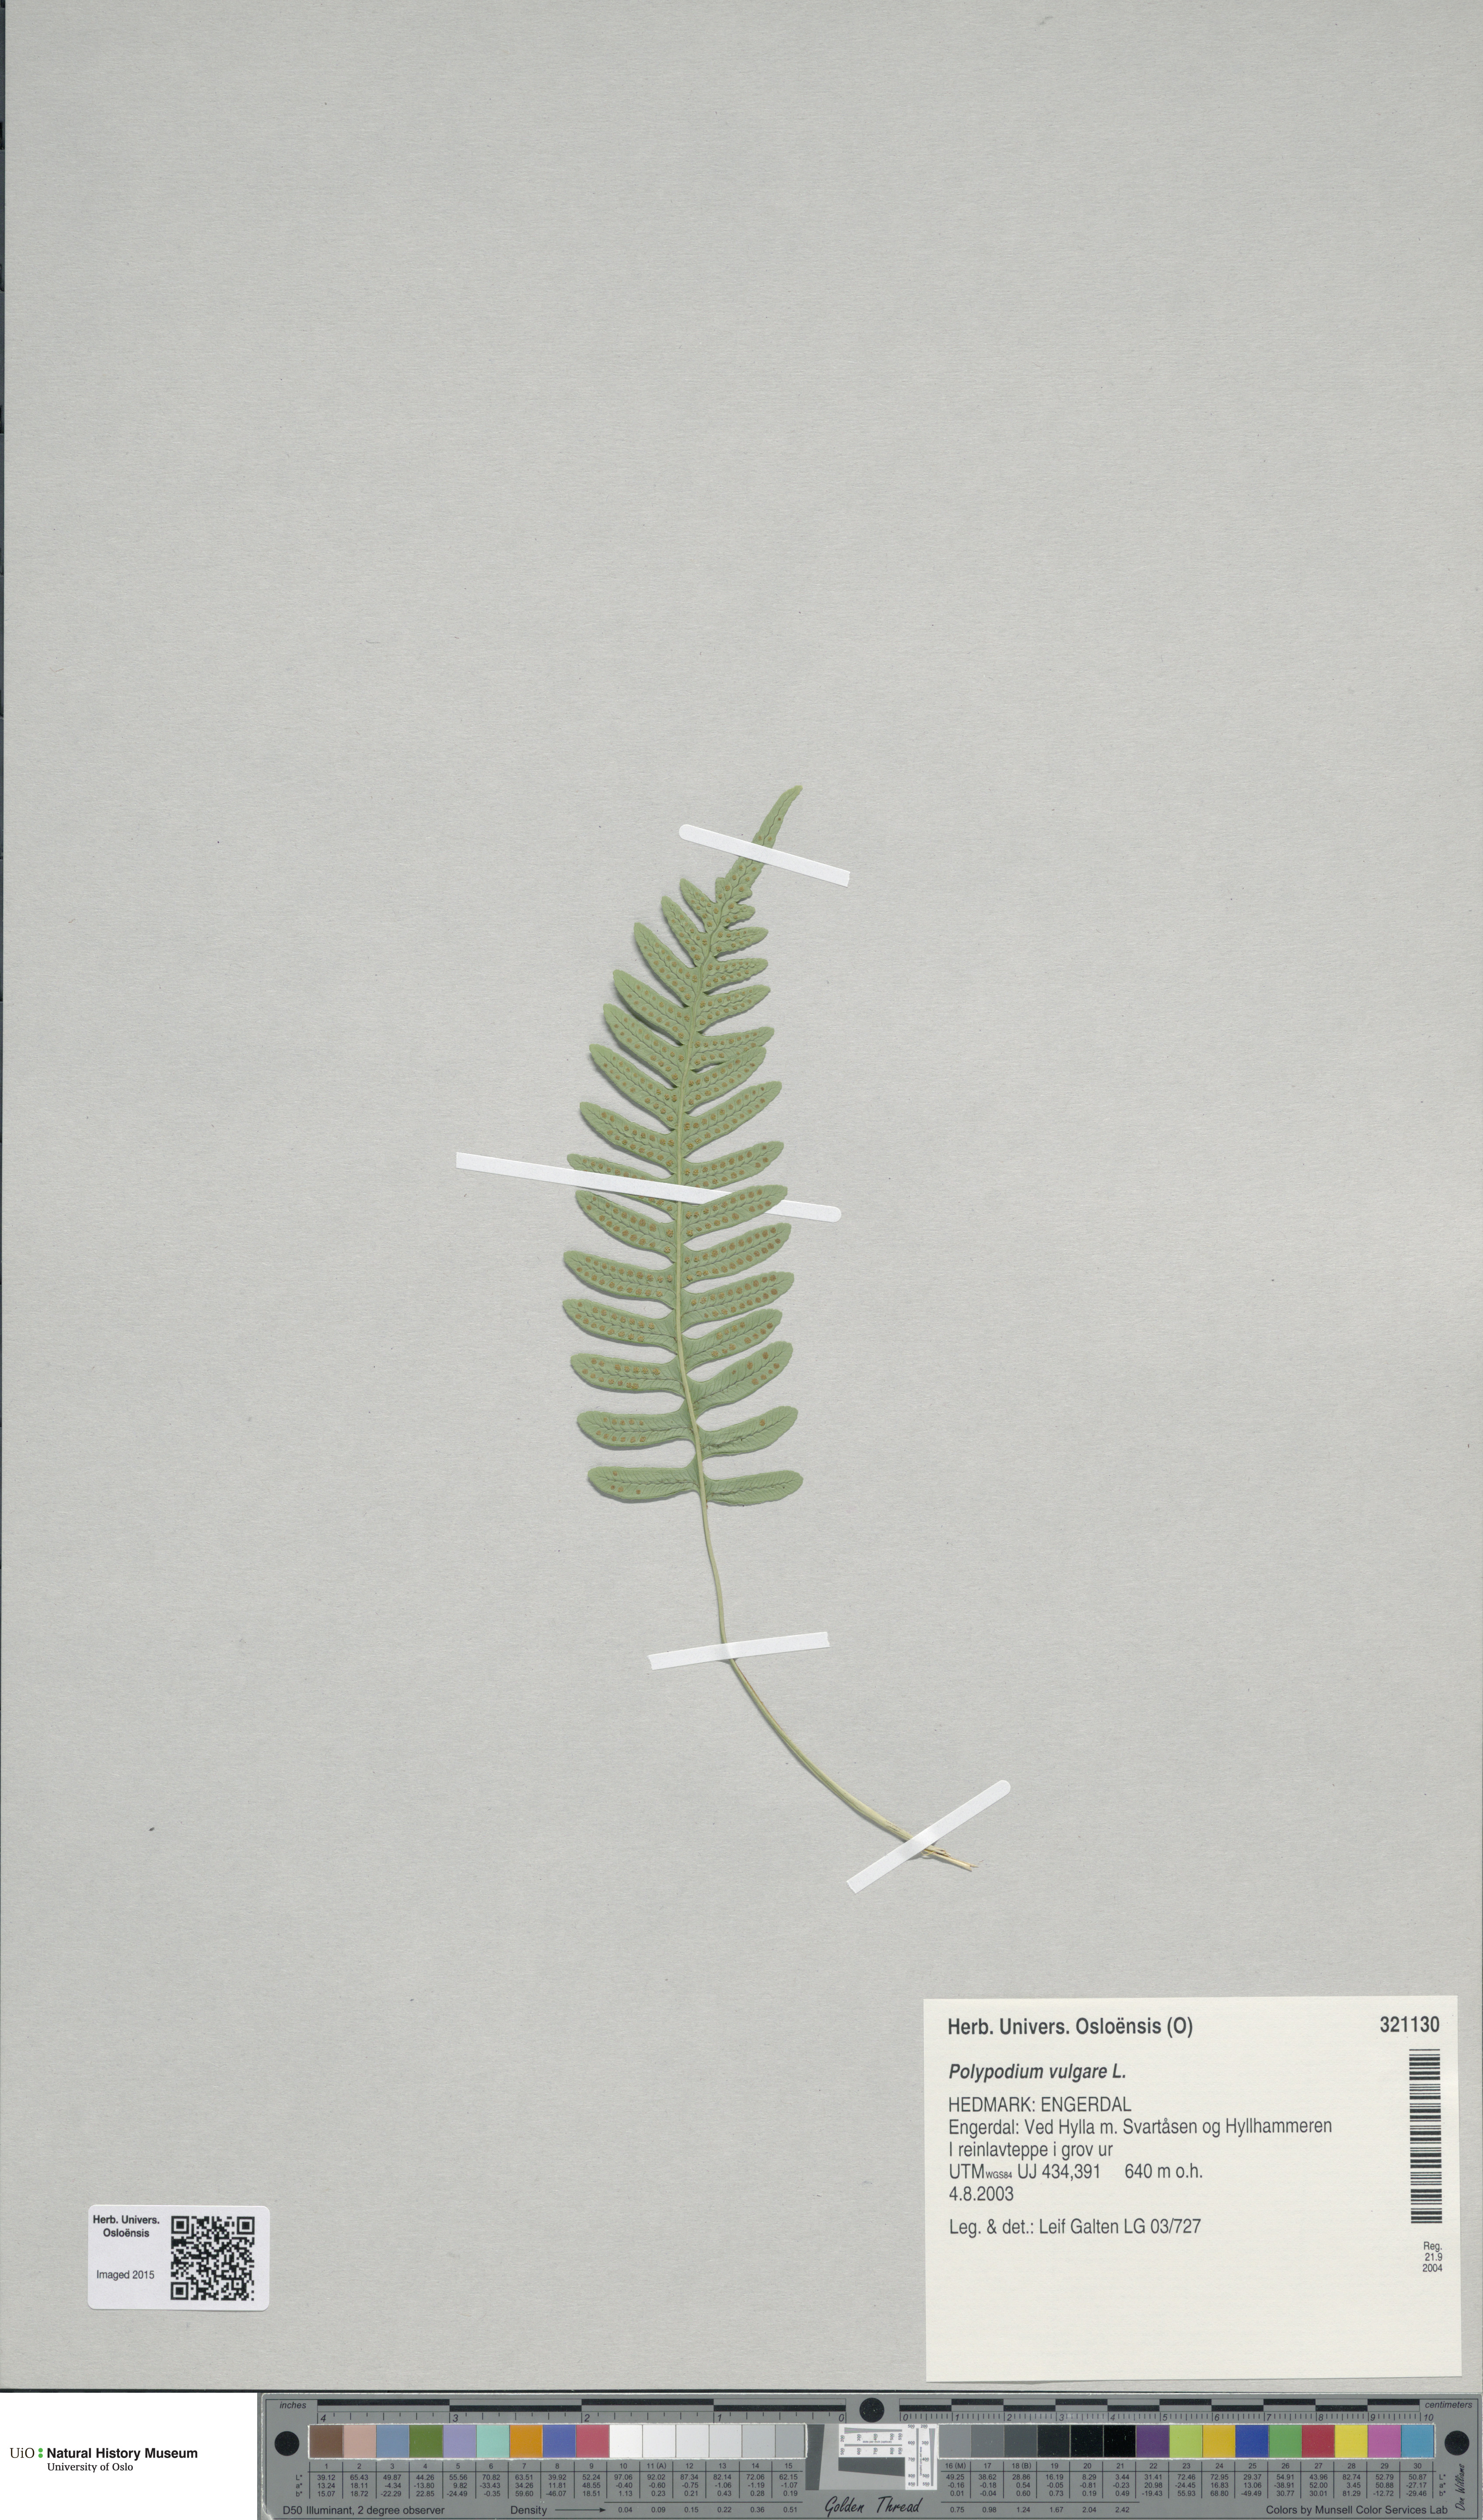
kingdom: Plantae
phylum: Tracheophyta
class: Polypodiopsida
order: Polypodiales
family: Polypodiaceae
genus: Polypodium
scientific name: Polypodium vulgare
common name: Common polypody
